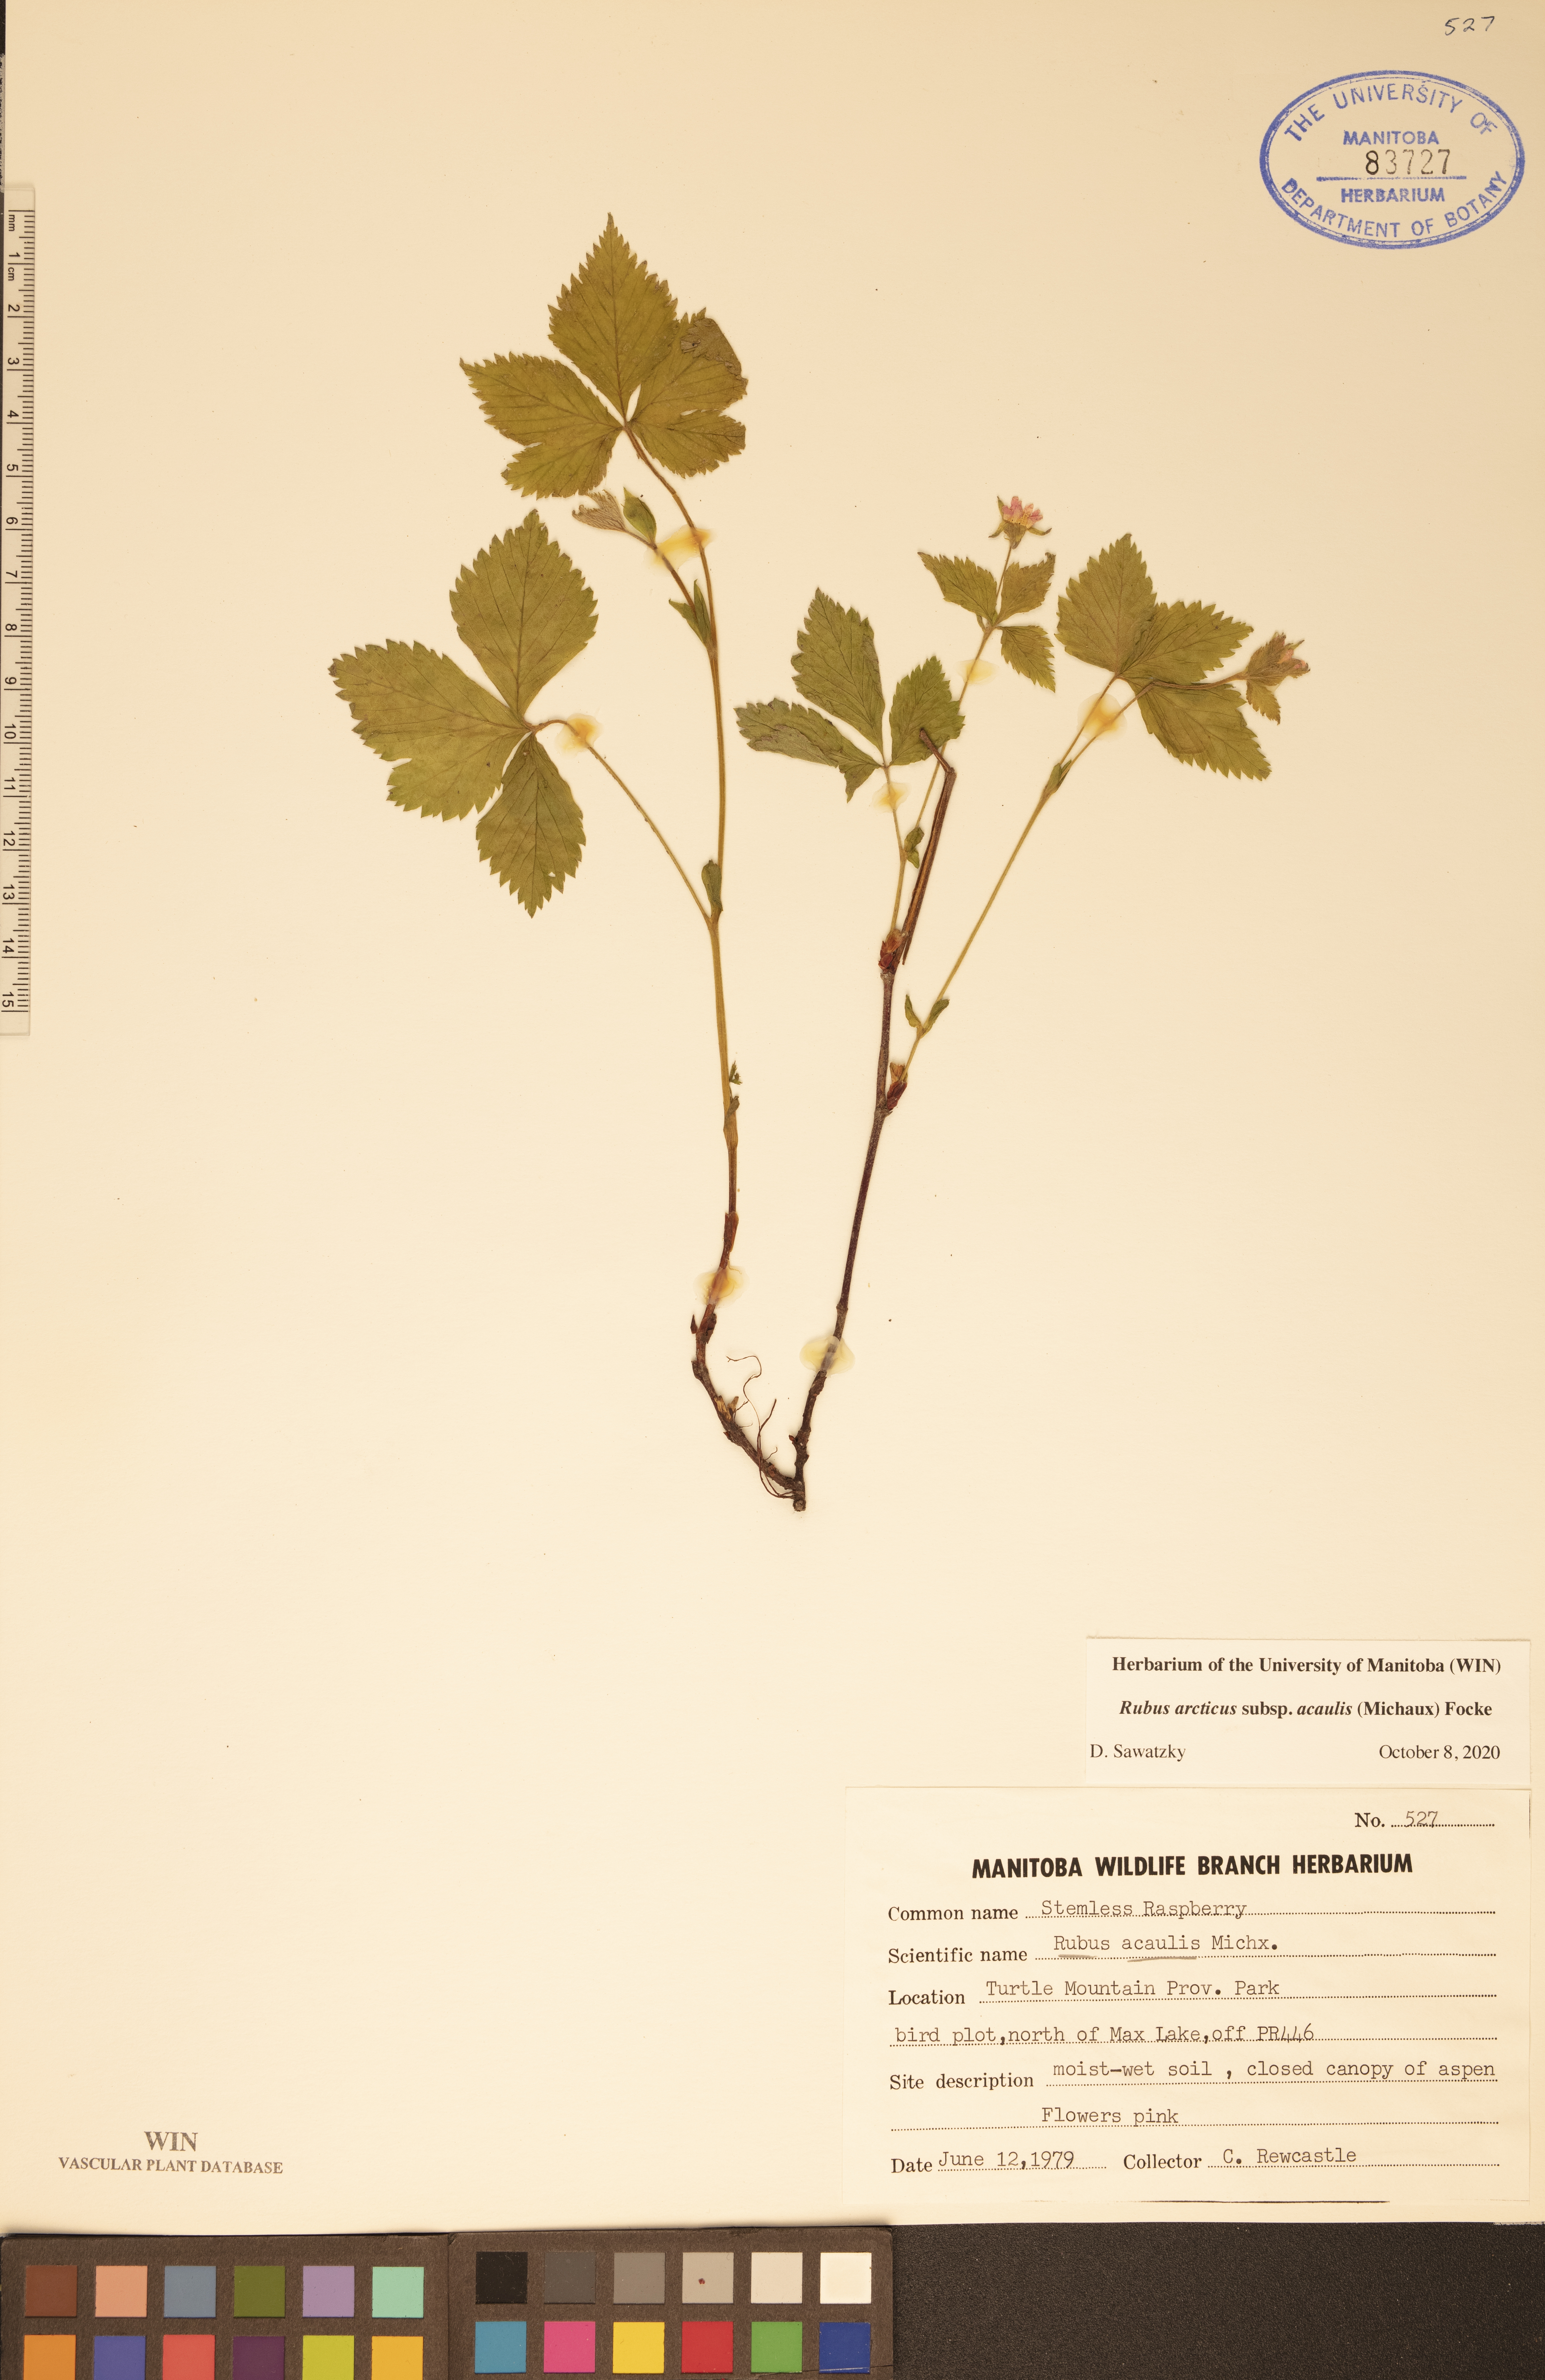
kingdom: Plantae
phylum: Tracheophyta
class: Magnoliopsida
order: Rosales
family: Rosaceae
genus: Rubus
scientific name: Rubus arcticus
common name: Arctic bramble
